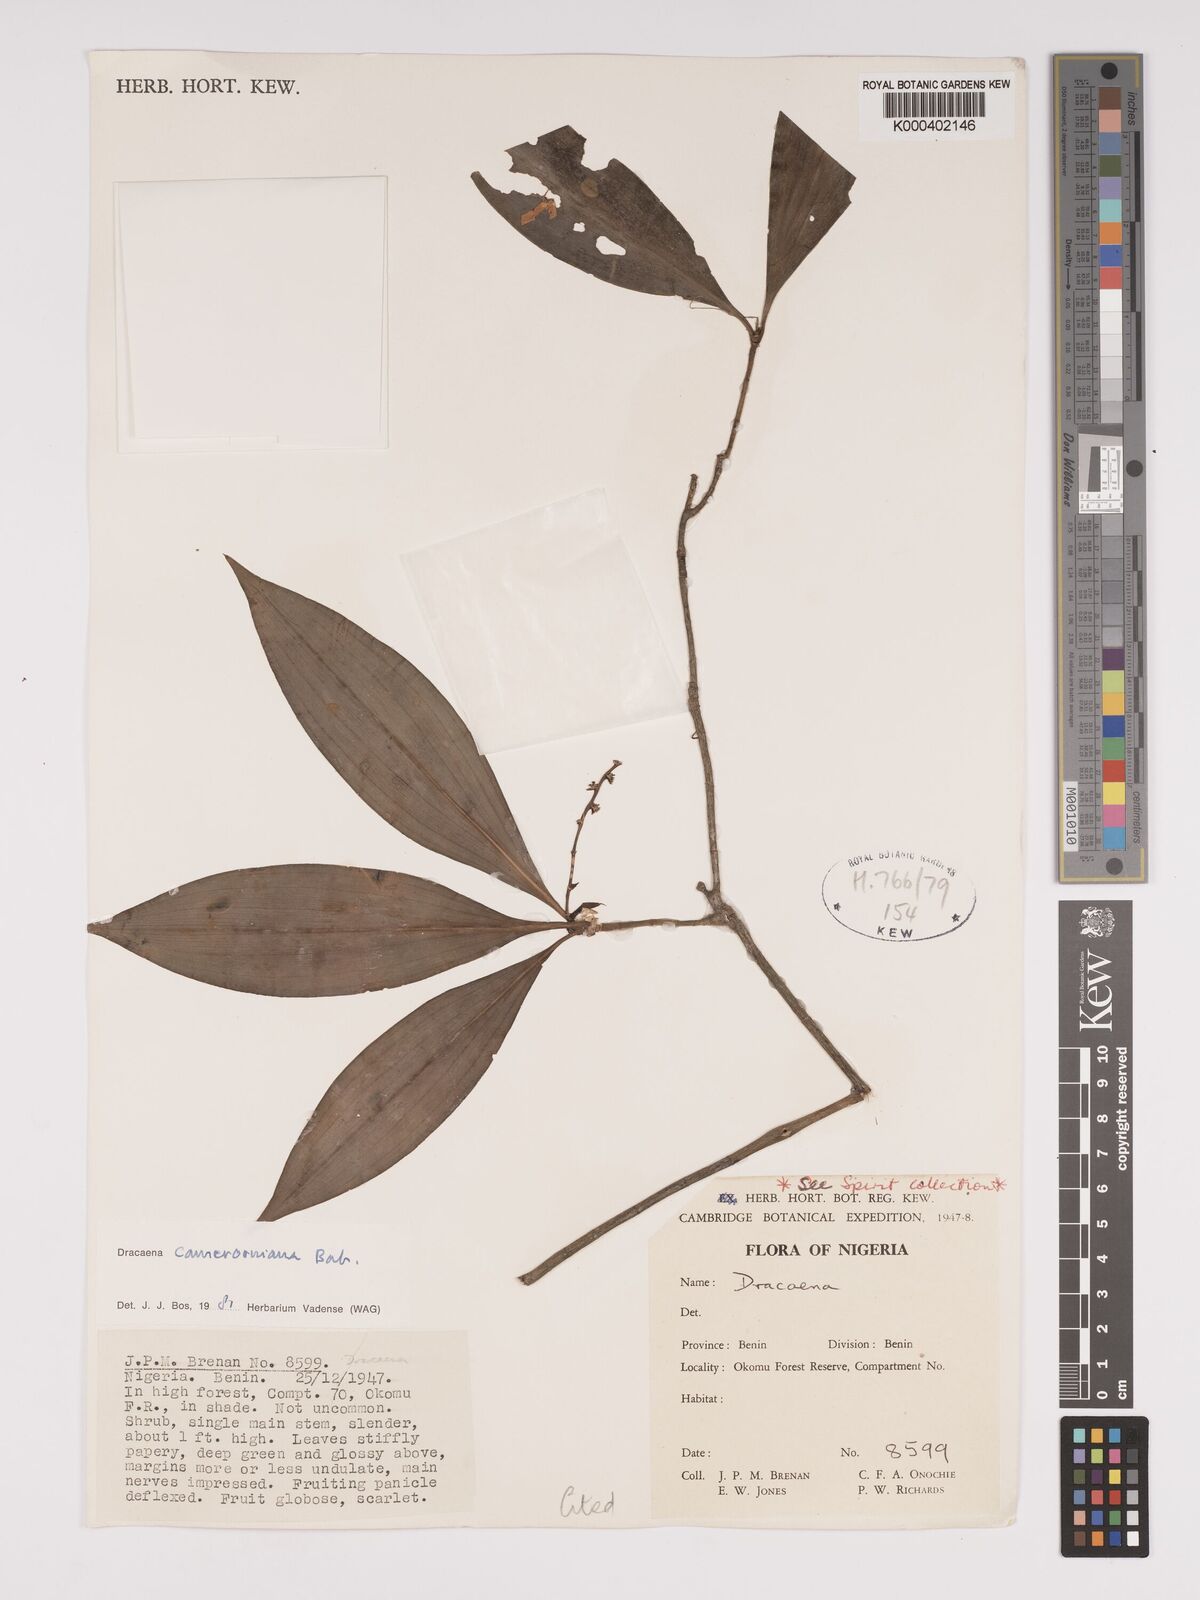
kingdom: Plantae
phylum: Tracheophyta
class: Liliopsida
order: Asparagales
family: Asparagaceae
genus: Dracaena
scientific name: Dracaena camerooniana
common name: Dragon tree
